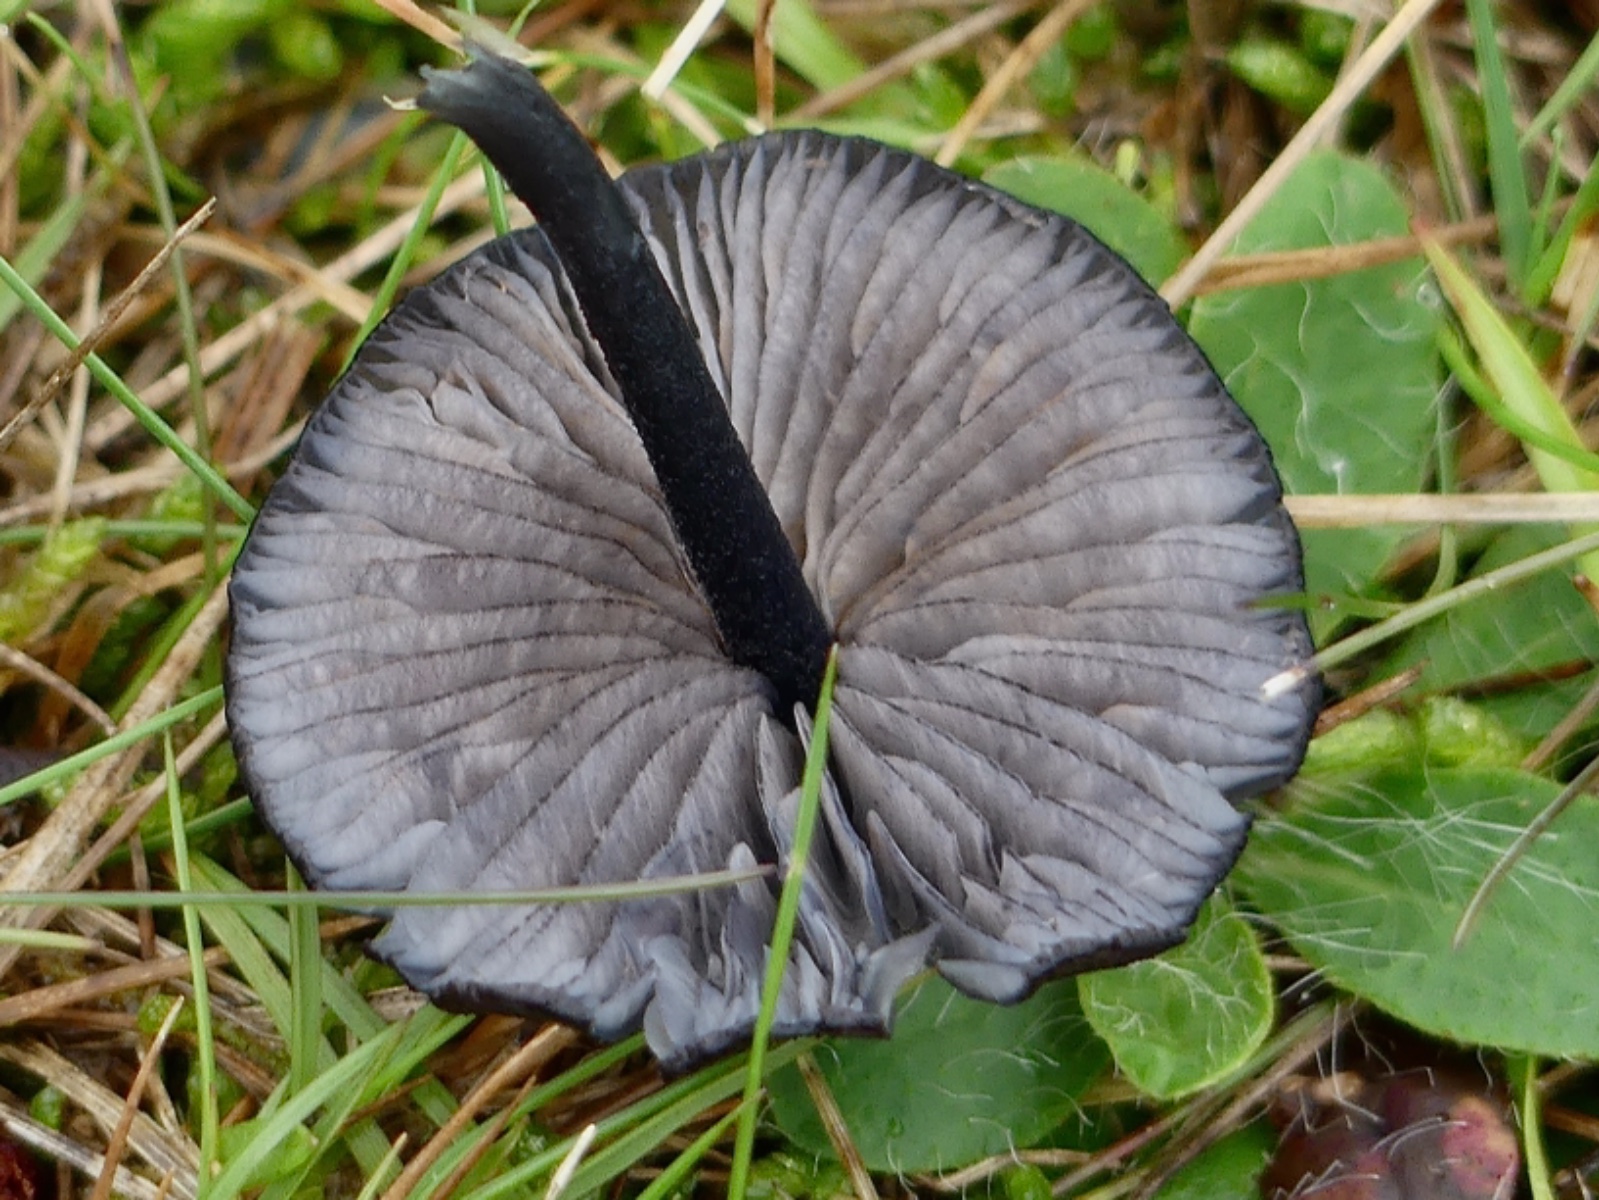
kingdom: Fungi
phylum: Basidiomycota
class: Agaricomycetes
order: Agaricales
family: Entolomataceae
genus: Entoloma
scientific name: Entoloma
